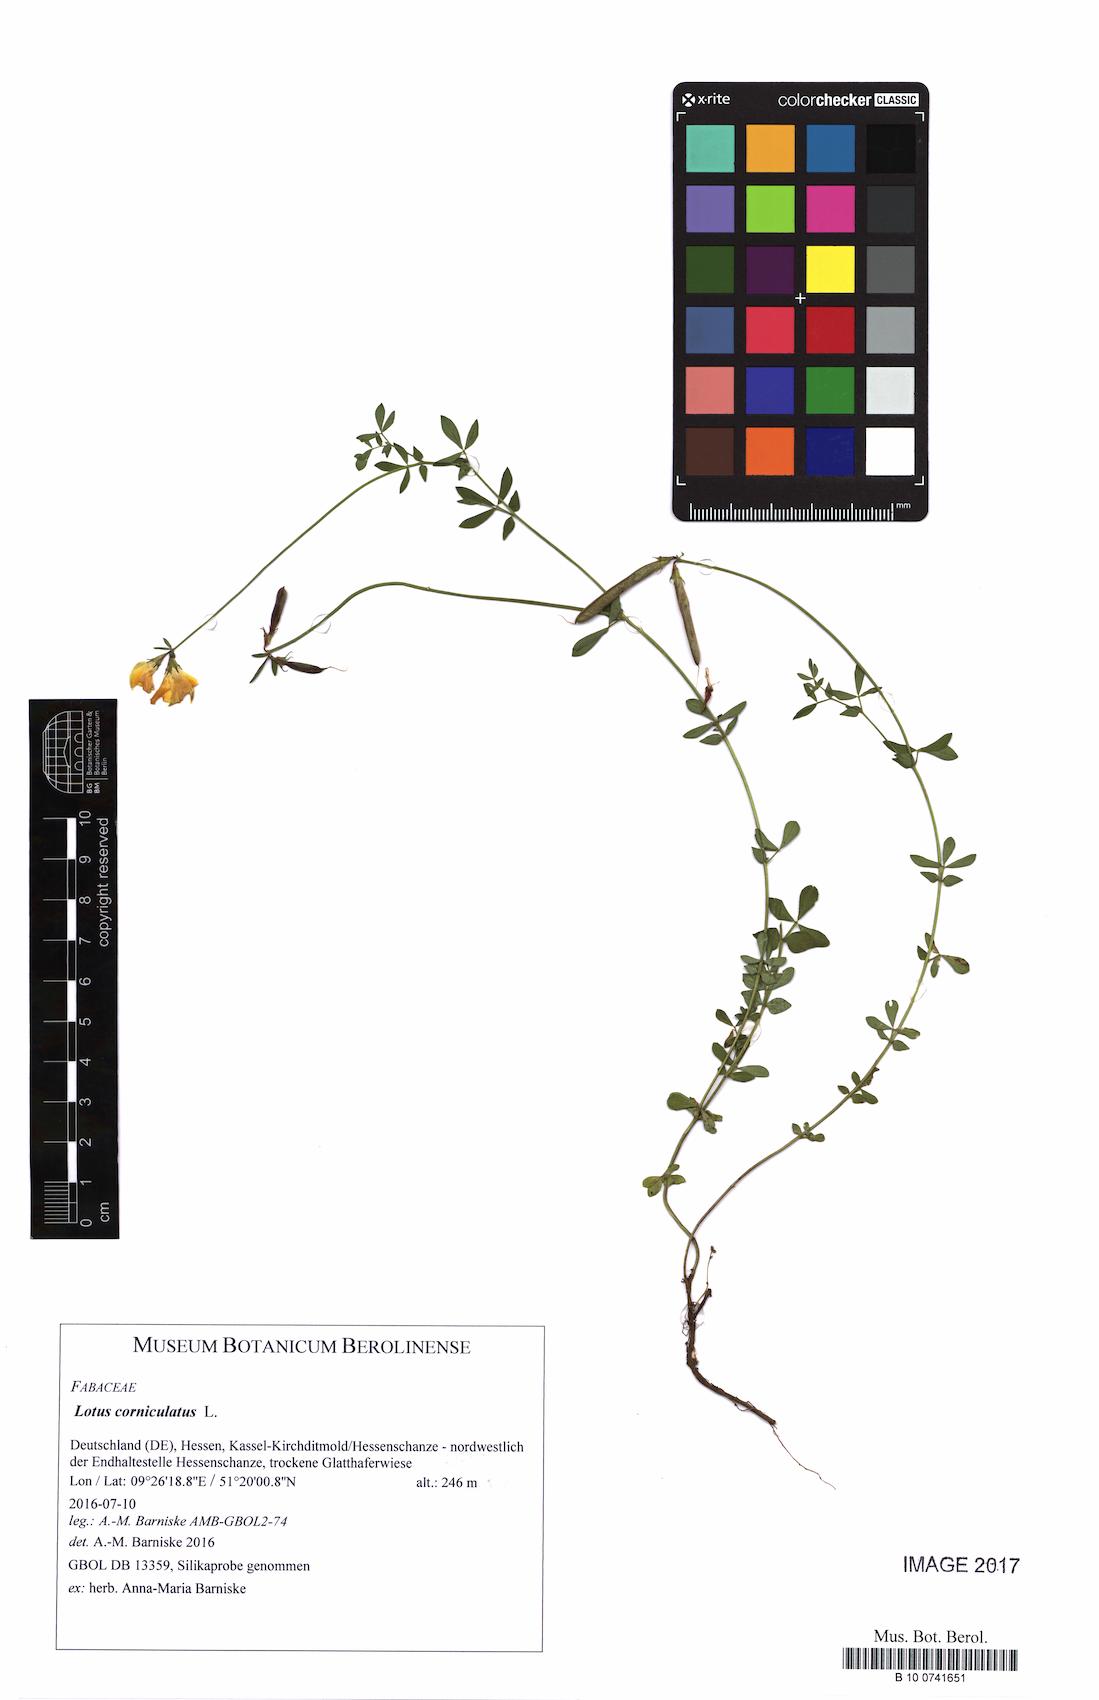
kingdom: Plantae
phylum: Tracheophyta
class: Magnoliopsida
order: Fabales
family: Fabaceae
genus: Lotus
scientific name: Lotus corniculatus
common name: Common bird's-foot-trefoil
